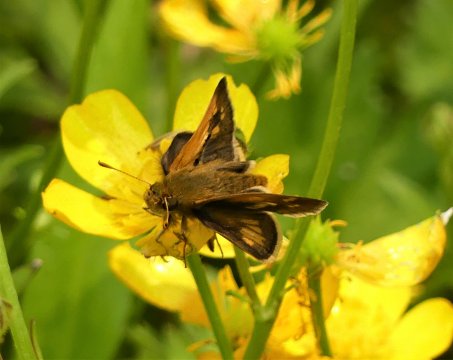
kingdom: Animalia
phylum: Arthropoda
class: Insecta
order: Lepidoptera
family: Hesperiidae
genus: Polites
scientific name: Polites coras
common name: Peck's Skipper
